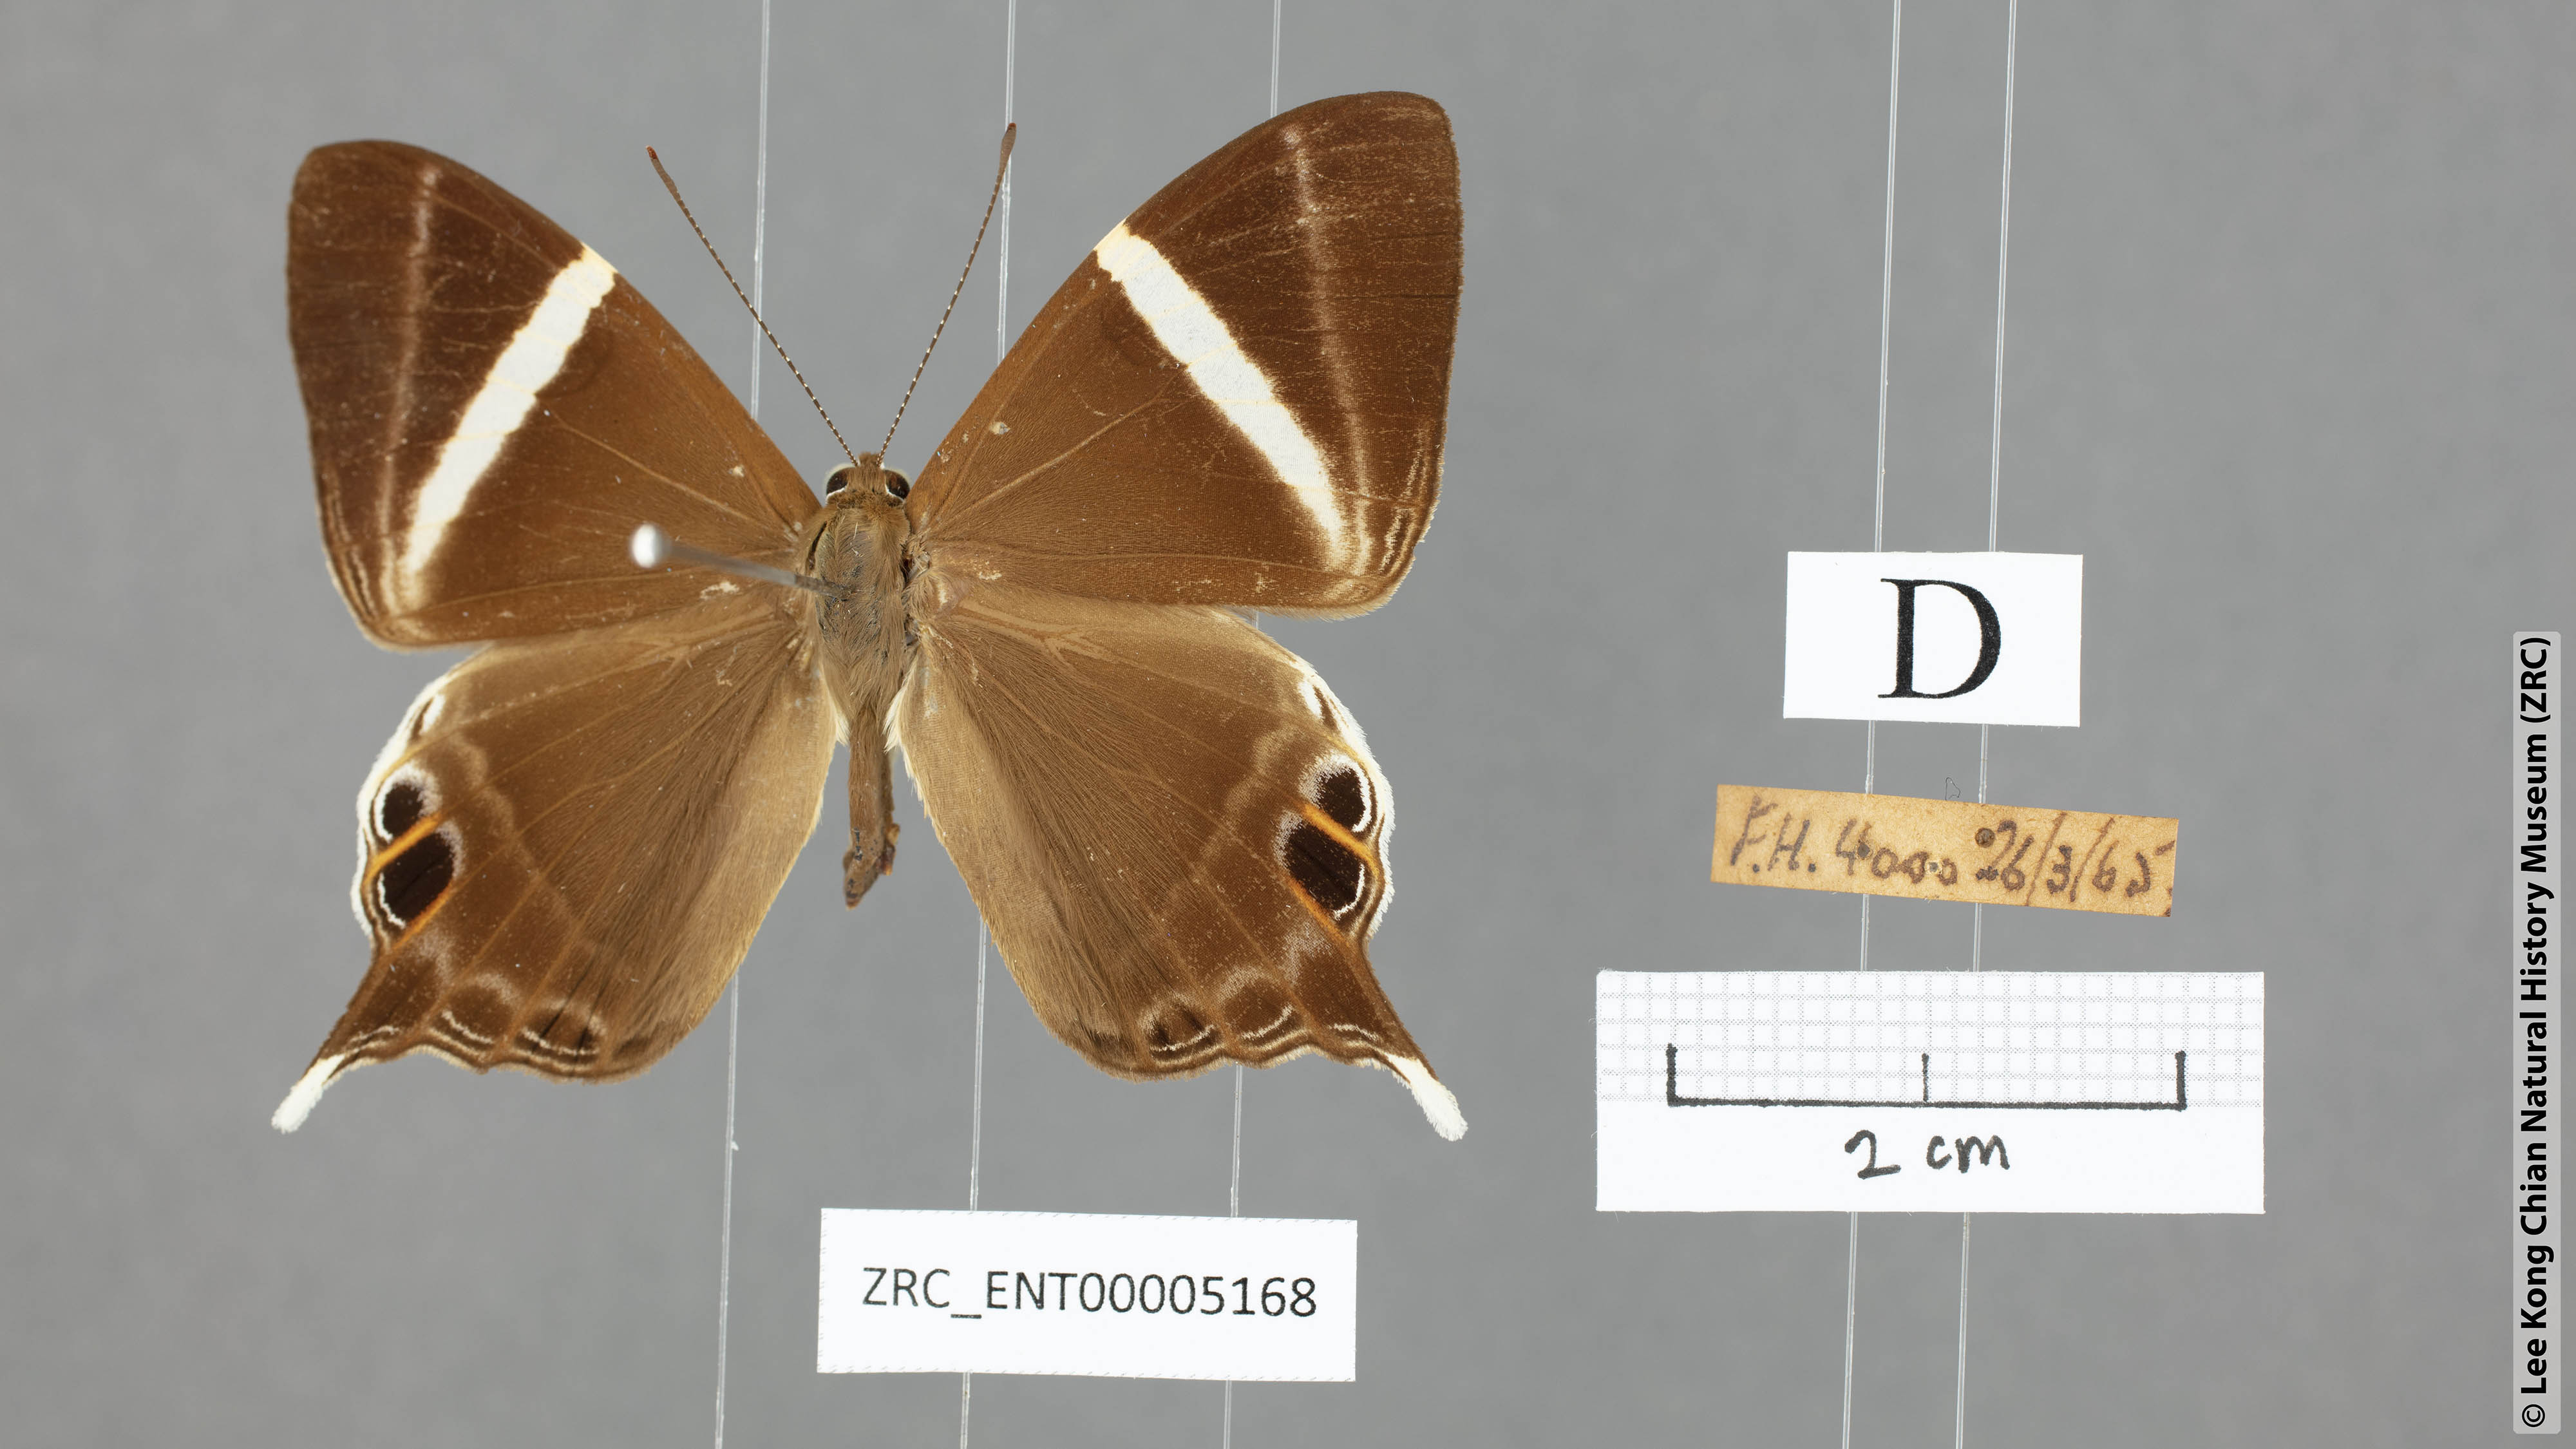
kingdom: Animalia
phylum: Arthropoda
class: Insecta
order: Lepidoptera
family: Riodinidae
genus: Archigenes
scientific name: Archigenes neophron
